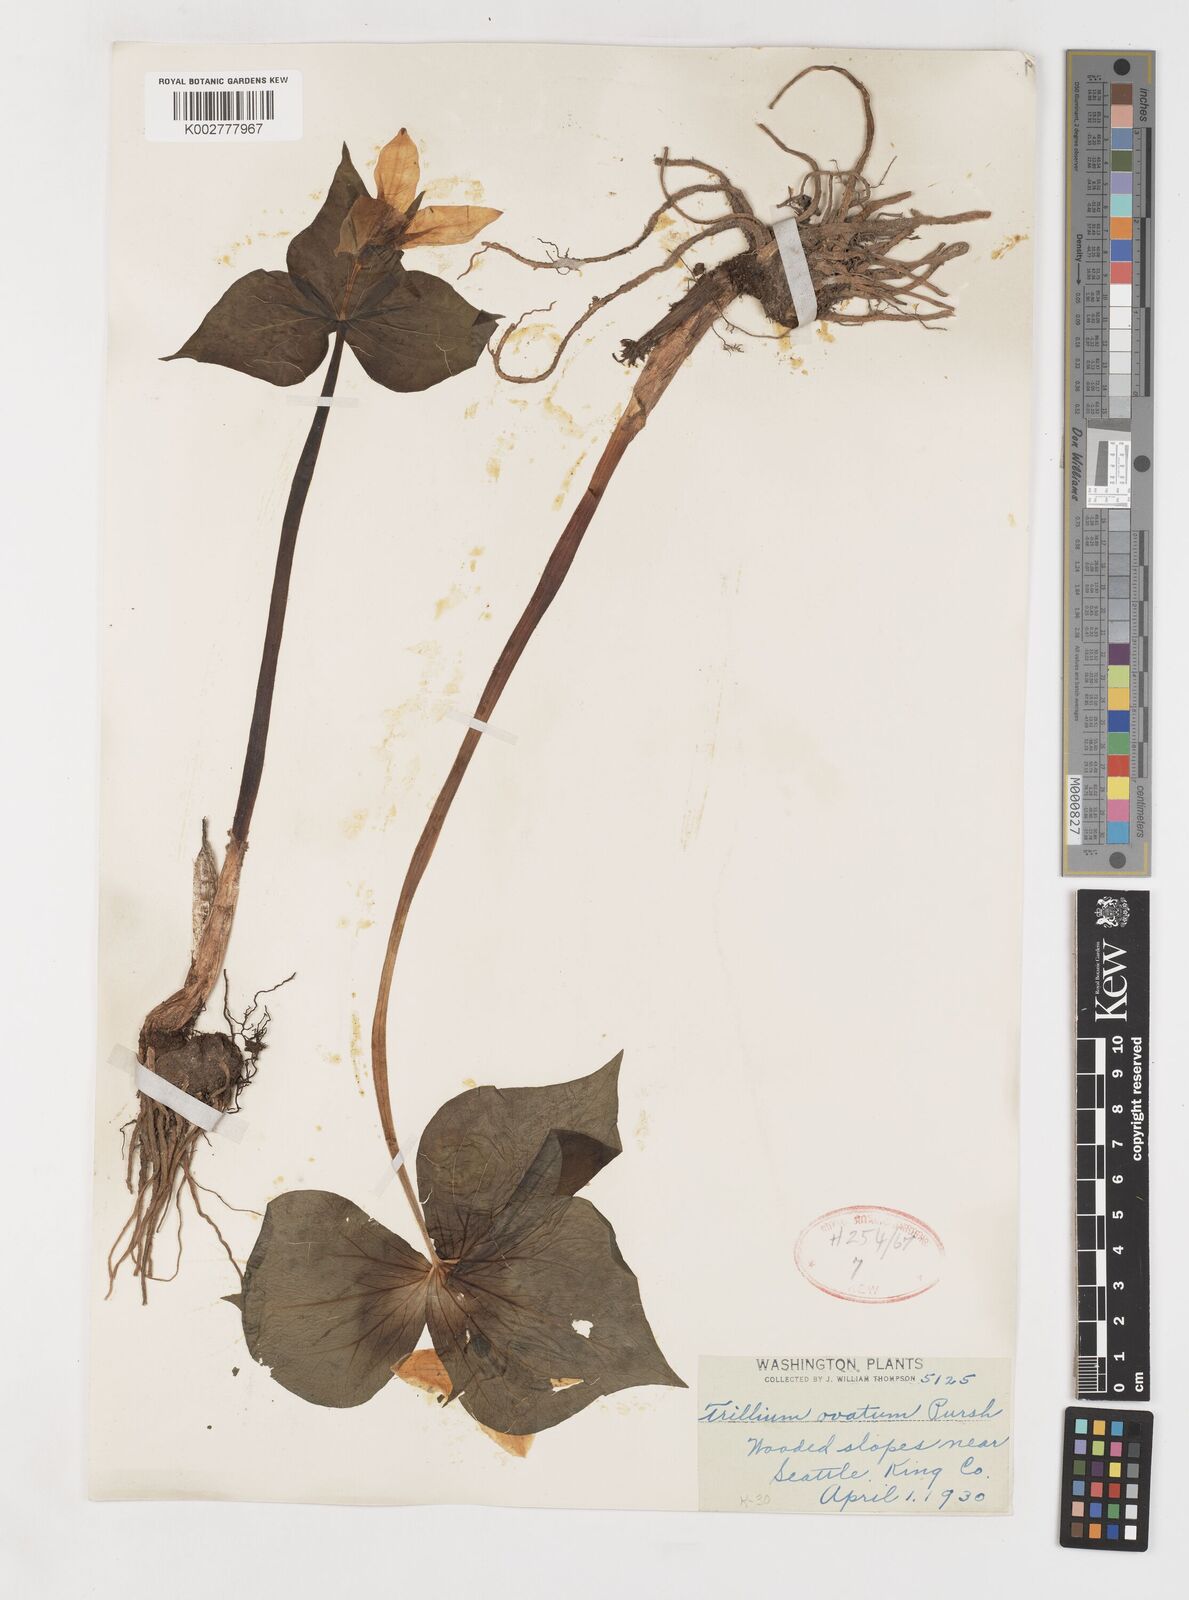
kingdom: Plantae
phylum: Tracheophyta
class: Liliopsida
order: Liliales
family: Melanthiaceae
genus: Trillium
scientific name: Trillium ovatum
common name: Pacific trillium
